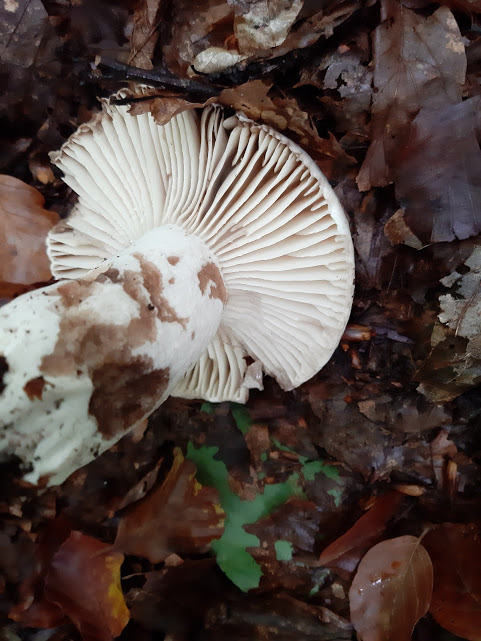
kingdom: Fungi
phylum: Basidiomycota
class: Agaricomycetes
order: Russulales
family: Russulaceae
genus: Russula
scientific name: Russula adusta
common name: sværtende skørhat
